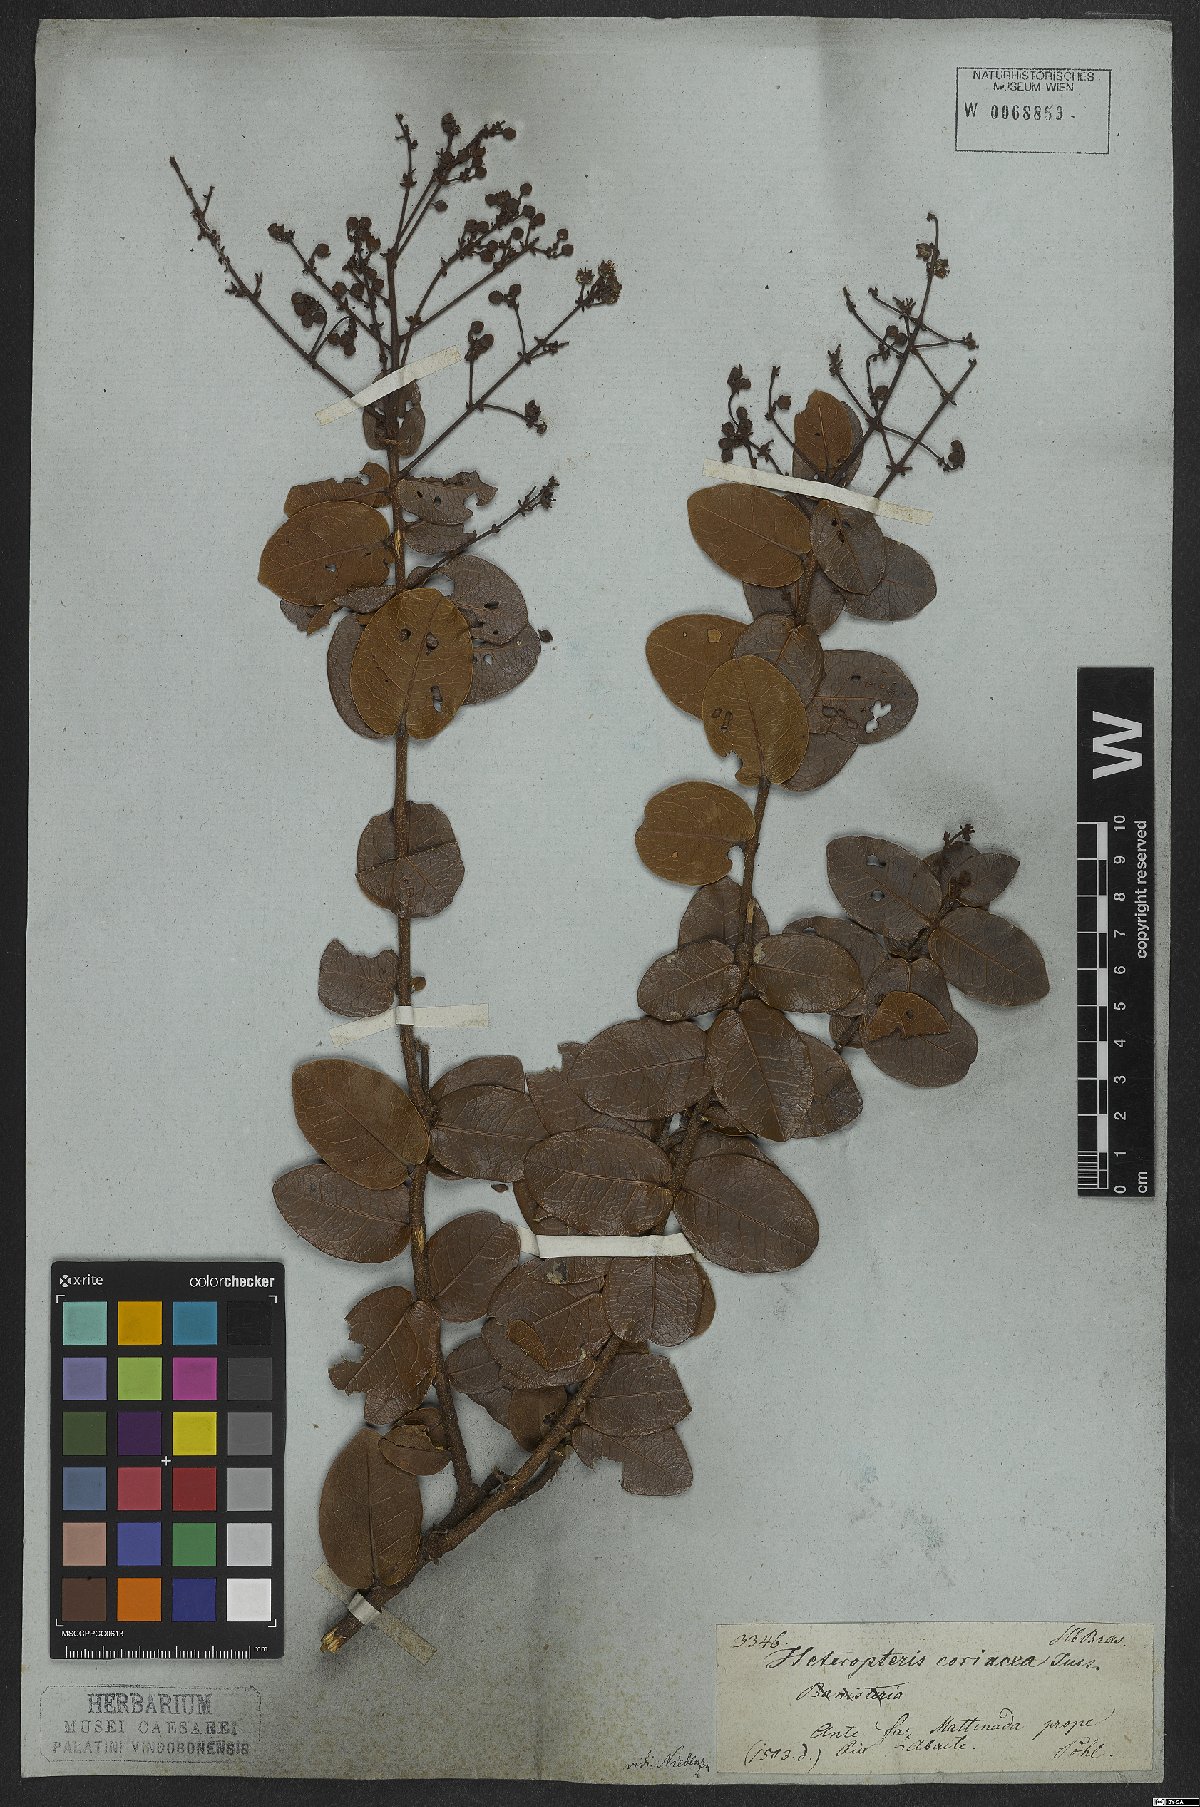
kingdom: Plantae
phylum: Tracheophyta
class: Magnoliopsida
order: Malpighiales
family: Malpighiaceae
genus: Heteropterys
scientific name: Heteropterys coriacea
